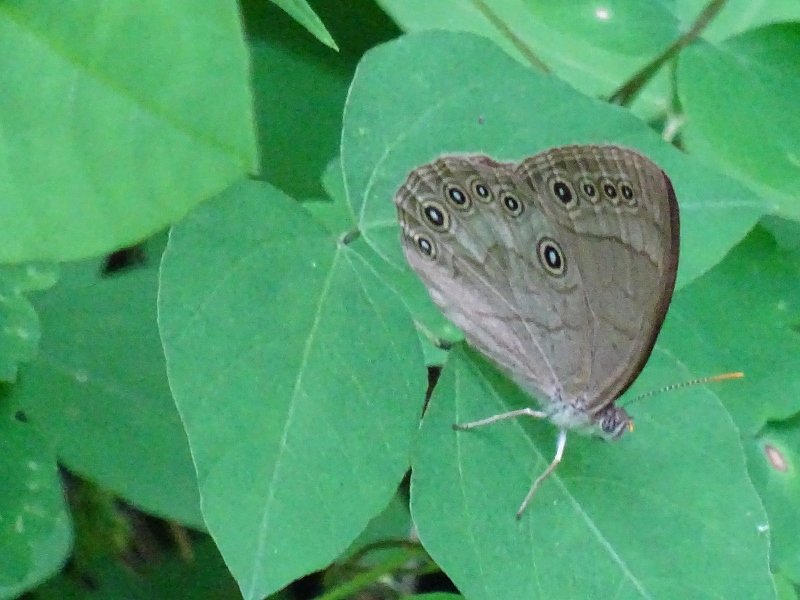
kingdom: Animalia
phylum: Arthropoda
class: Insecta
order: Lepidoptera
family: Nymphalidae
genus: Lethe
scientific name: Lethe
